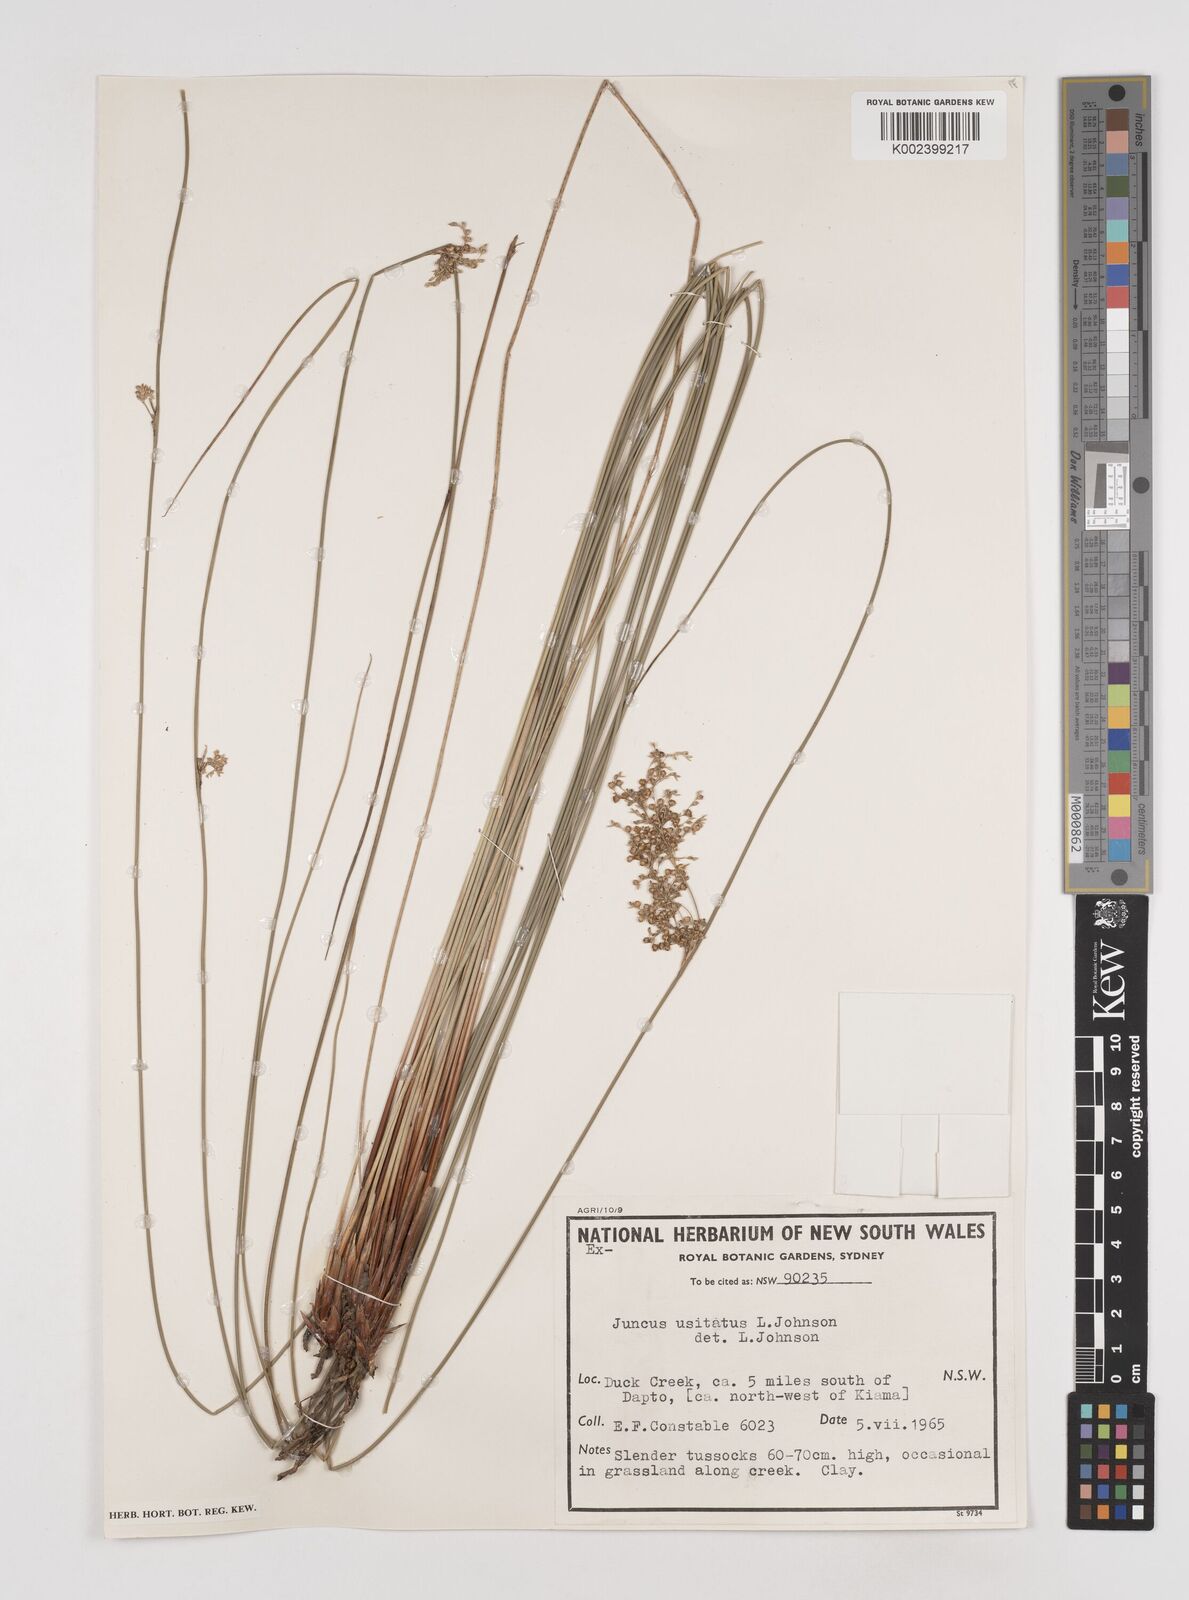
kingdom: Plantae
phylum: Tracheophyta
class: Liliopsida
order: Poales
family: Juncaceae
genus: Juncus
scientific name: Juncus usitatus
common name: Rush
